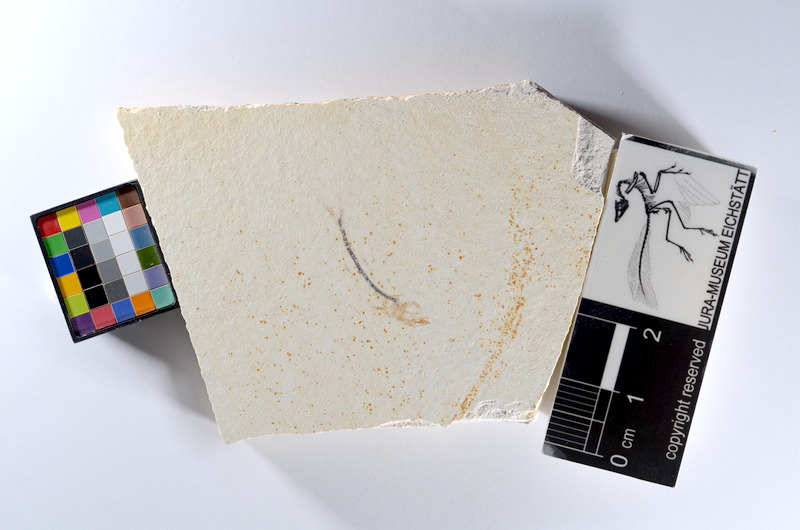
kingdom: Animalia
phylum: Chordata
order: Salmoniformes
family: Orthogonikleithridae
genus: Orthogonikleithrus
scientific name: Orthogonikleithrus hoelli
